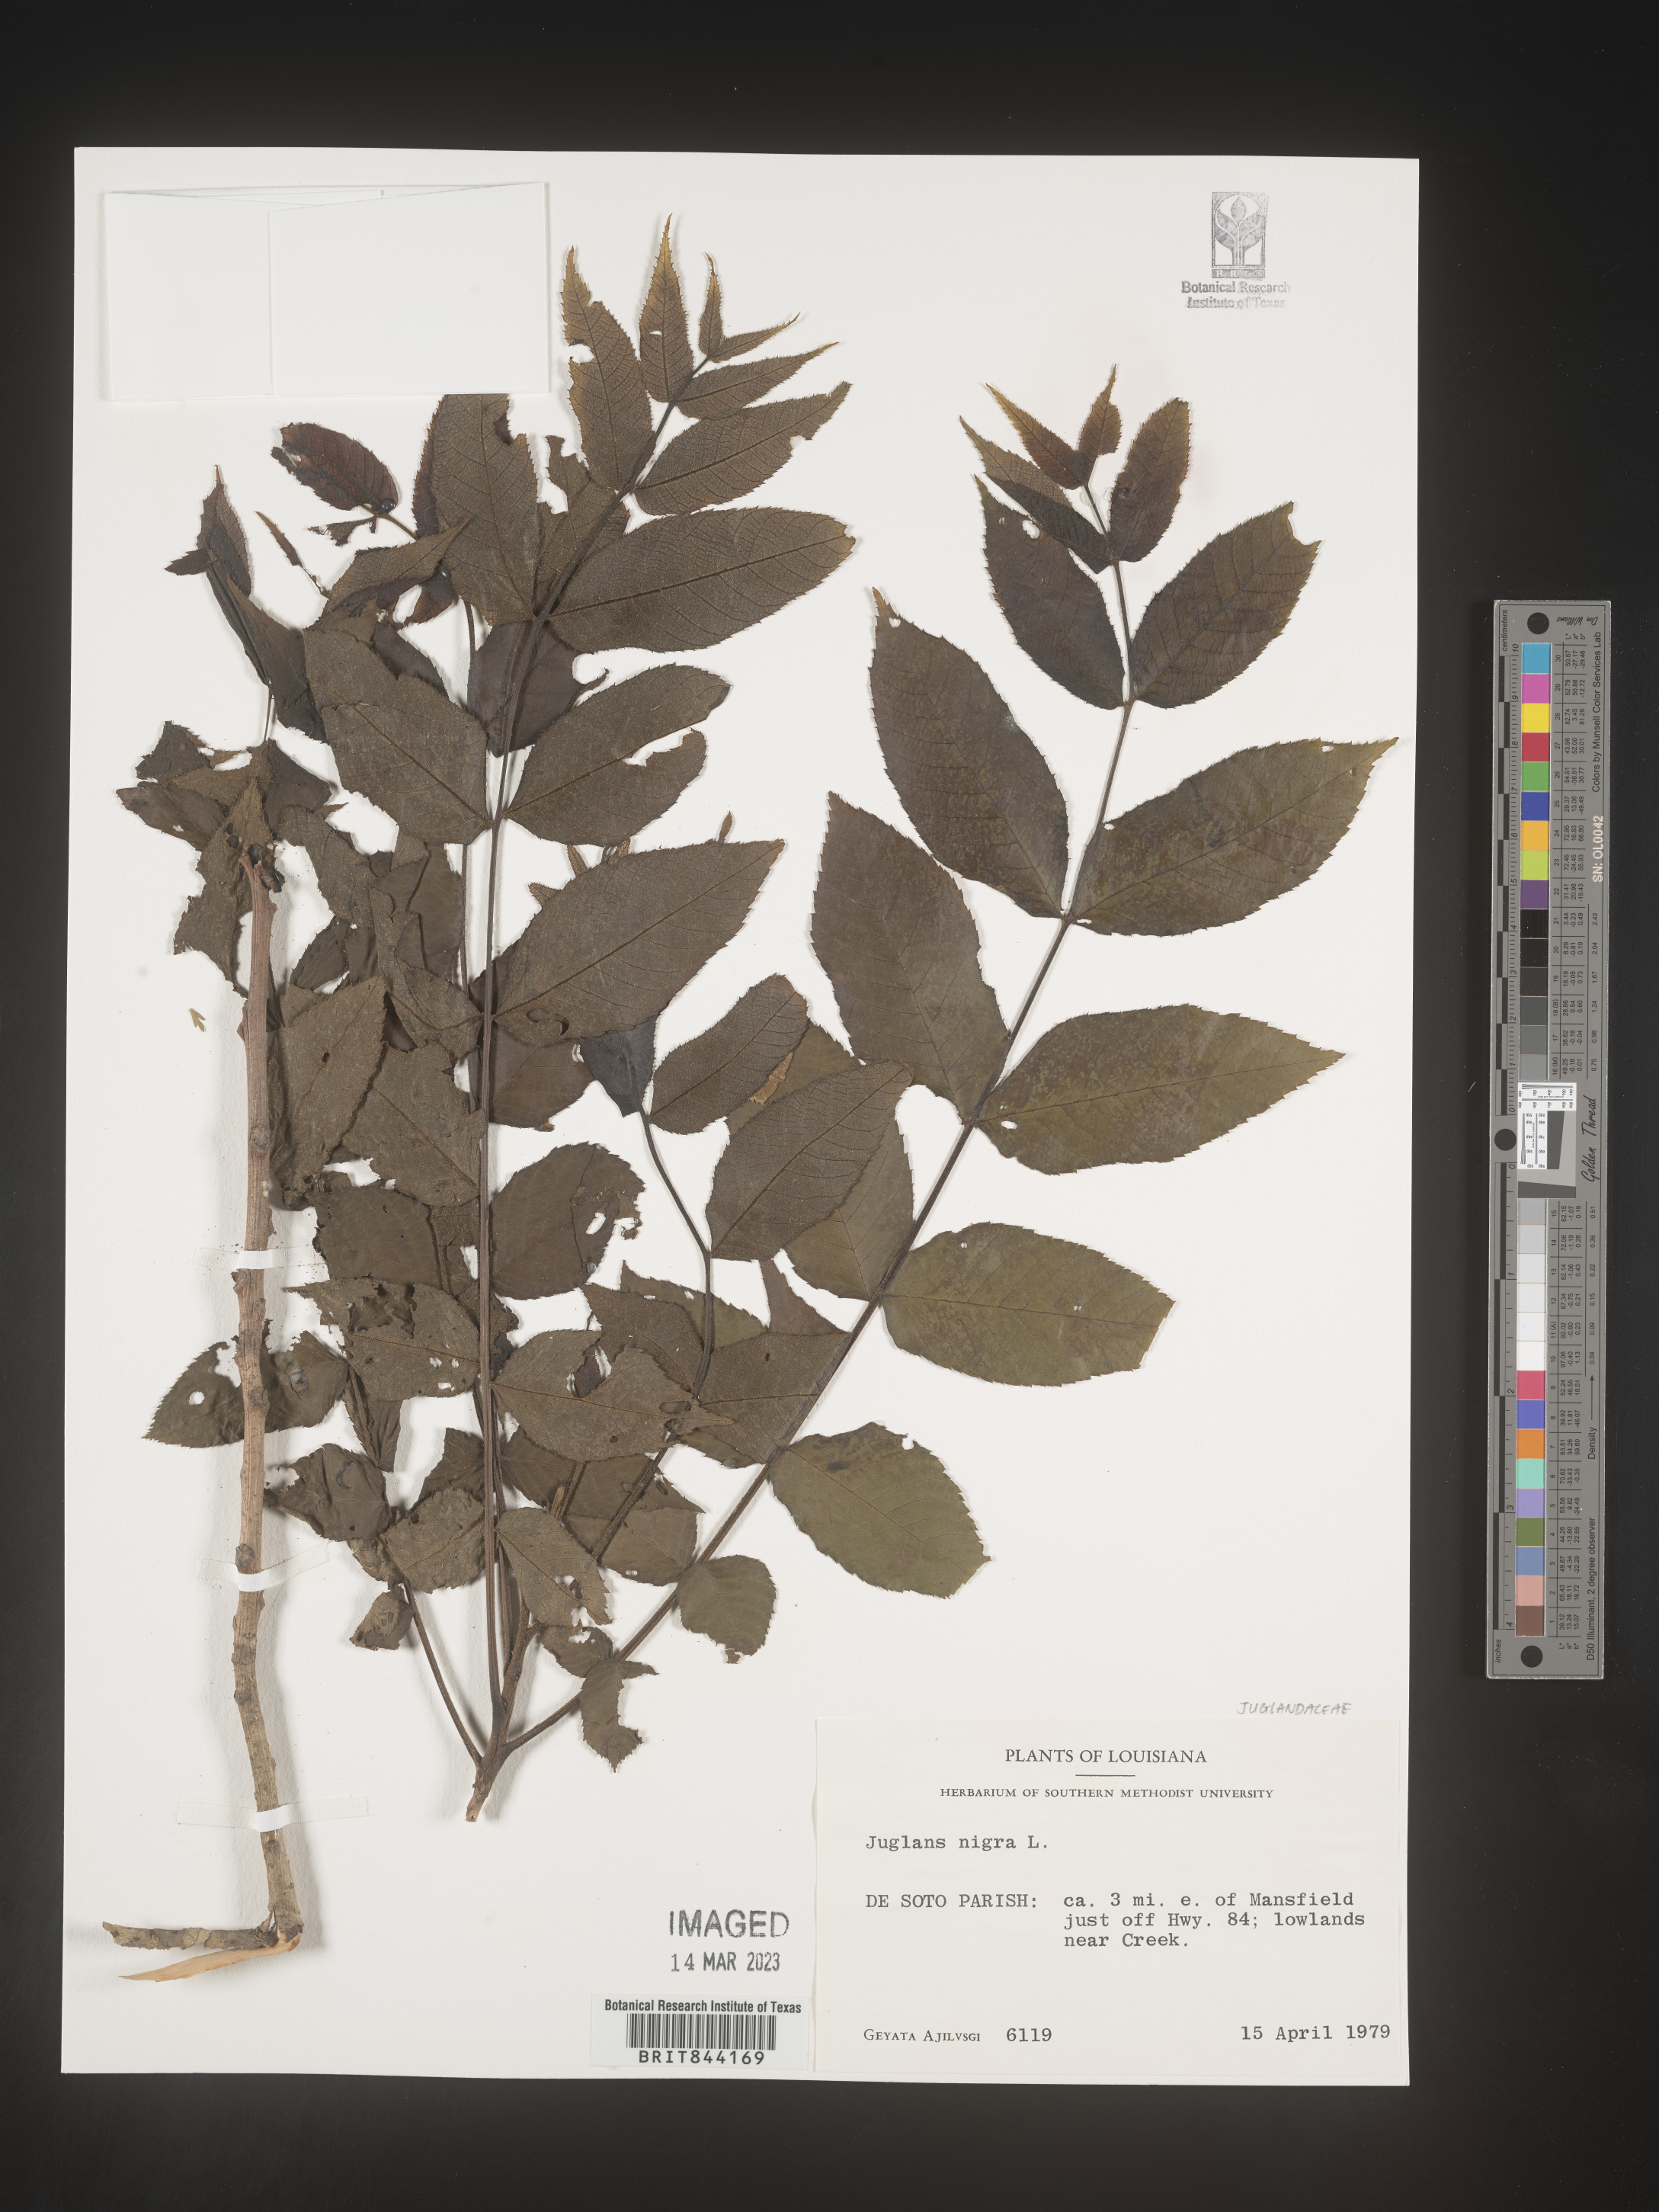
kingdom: Plantae
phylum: Tracheophyta
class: Magnoliopsida
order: Fagales
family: Juglandaceae
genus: Juglans
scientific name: Juglans nigra
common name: Black walnut
